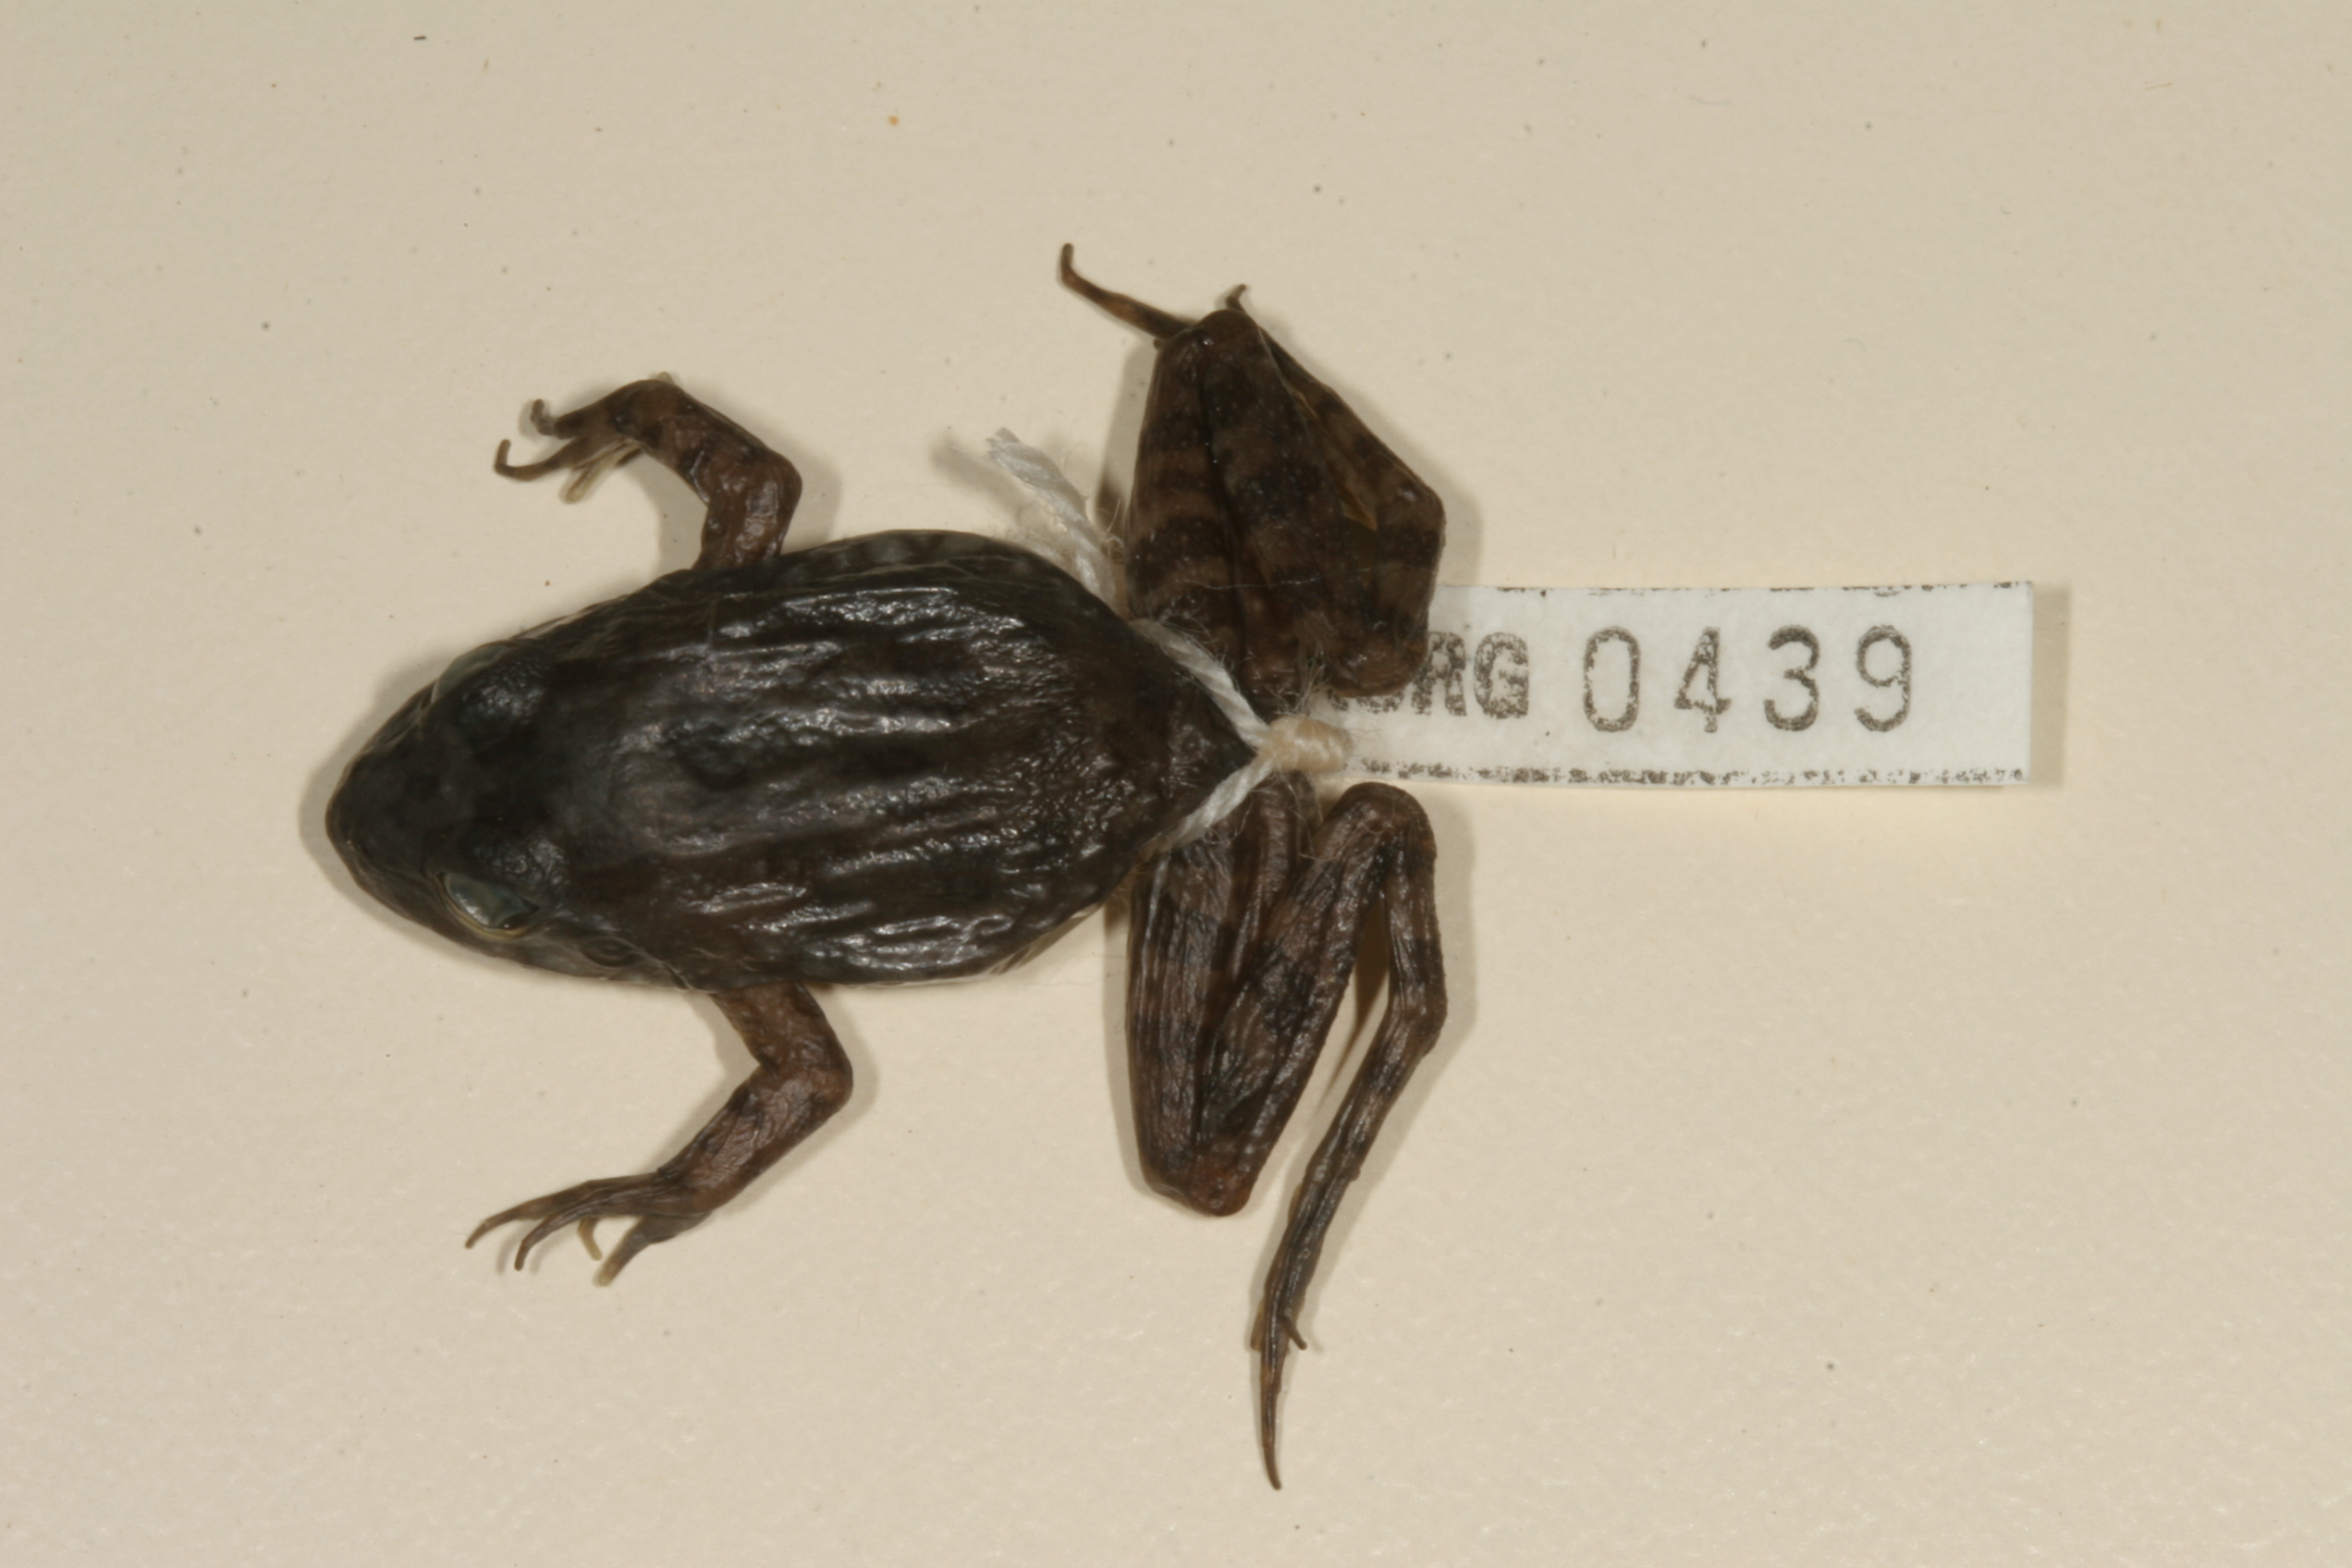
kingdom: Animalia
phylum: Chordata
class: Amphibia
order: Anura
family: Pyxicephalidae
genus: Amietia
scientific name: Amietia fuscigula
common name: Cape rana
